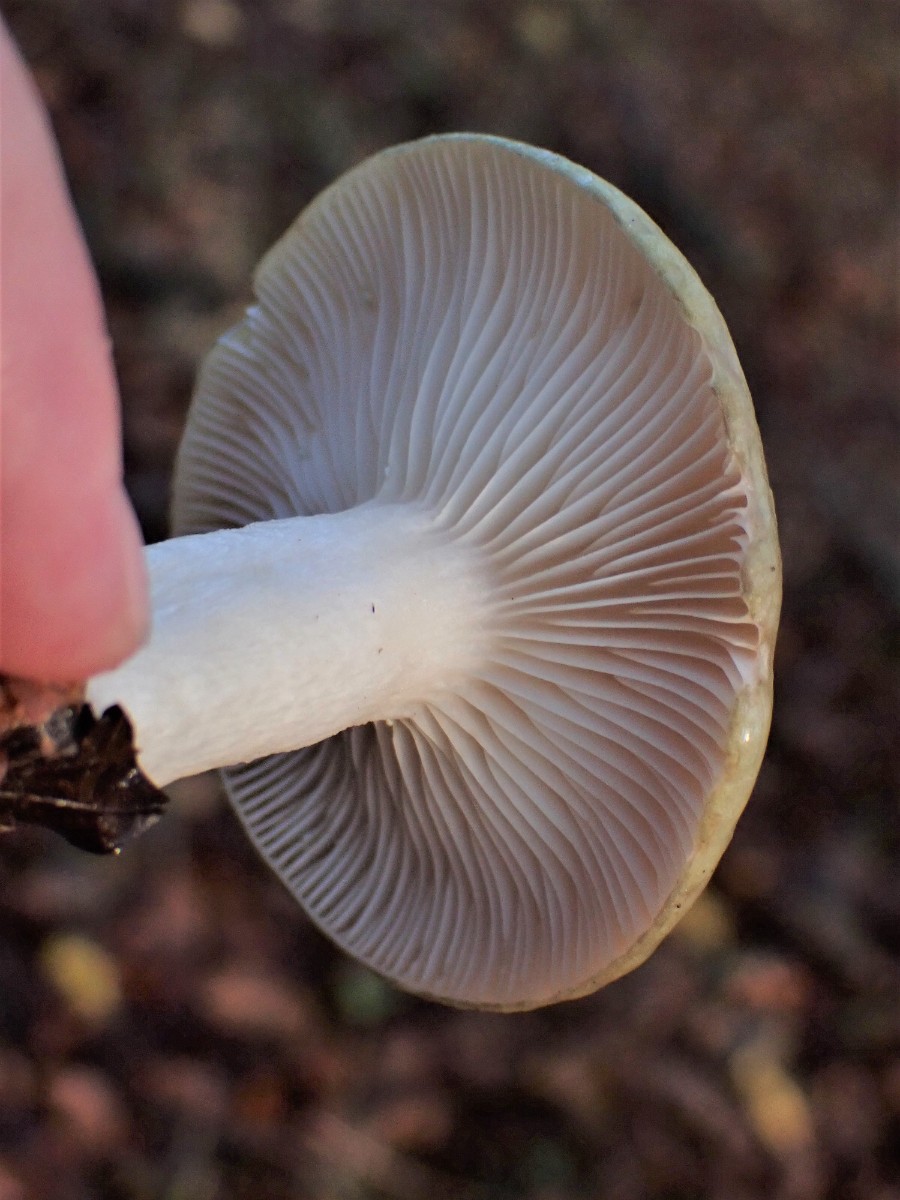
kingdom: Fungi
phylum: Basidiomycota
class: Agaricomycetes
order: Russulales
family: Russulaceae
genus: Lactarius
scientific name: Lactarius blennius
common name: dråbeplettet mælkehat
